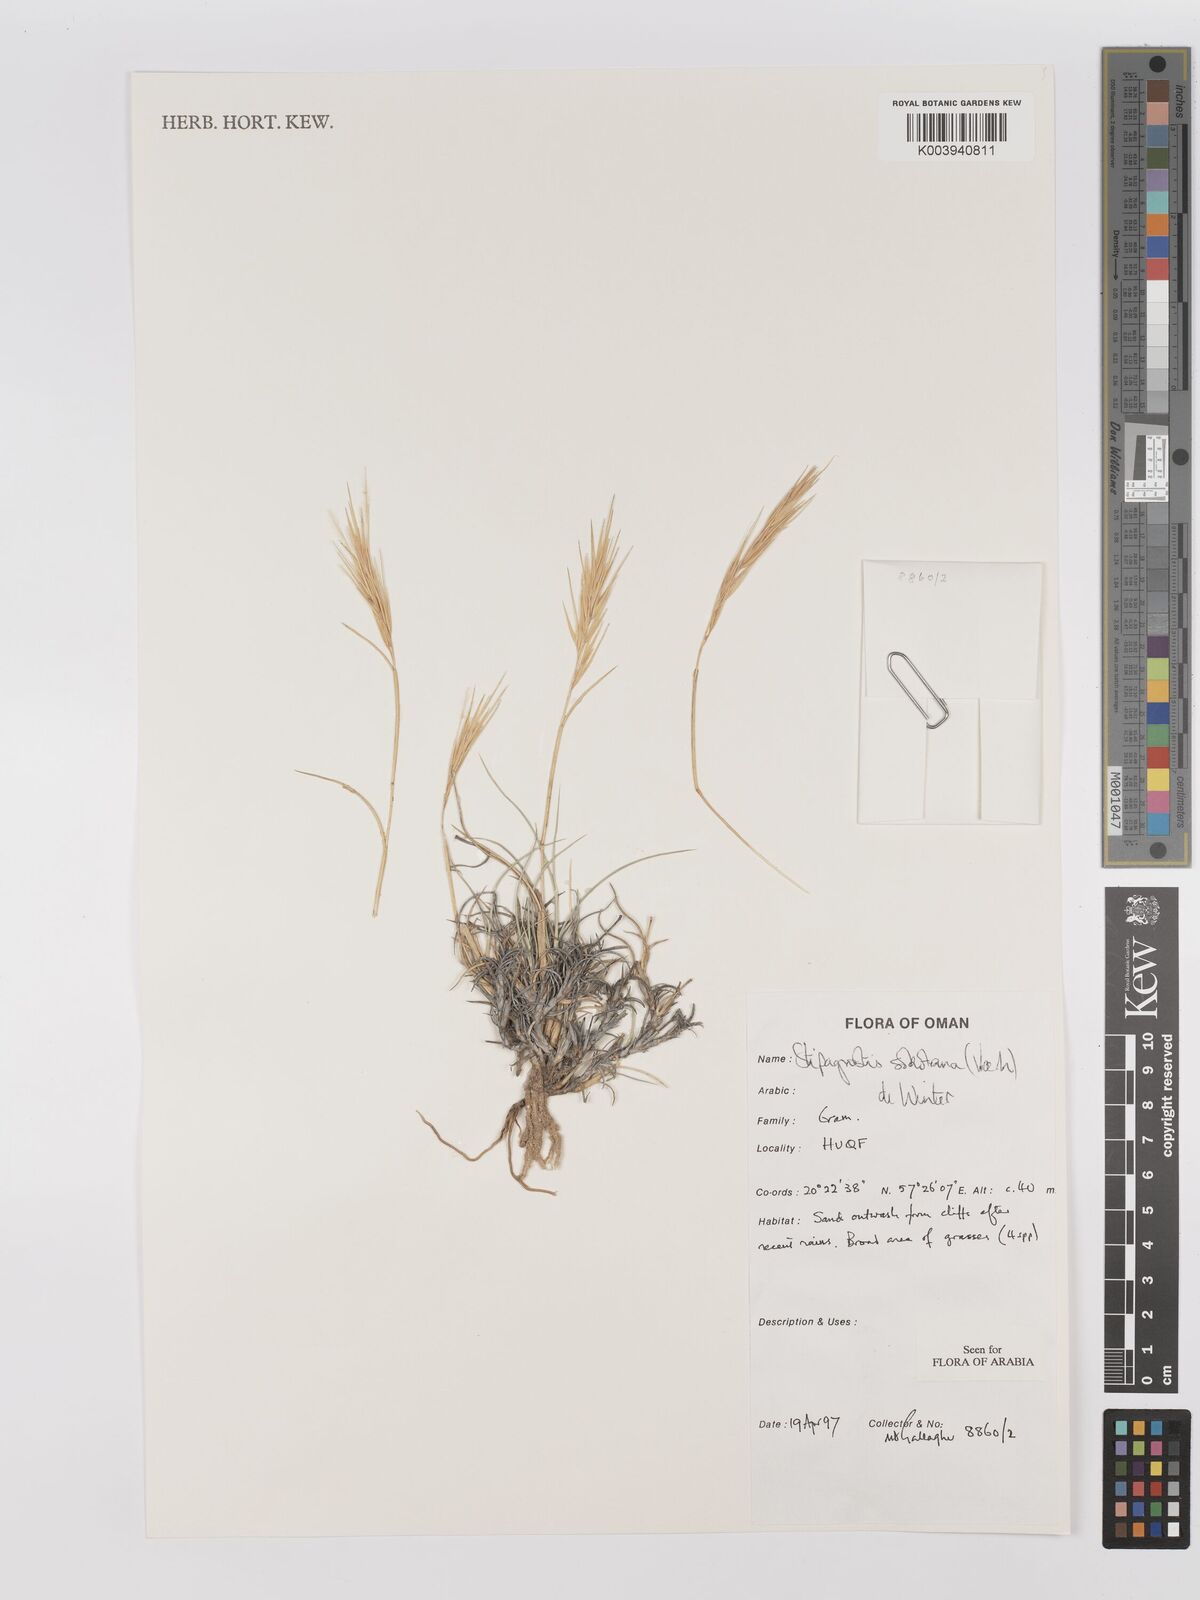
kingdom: Plantae
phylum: Tracheophyta
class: Liliopsida
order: Poales
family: Poaceae
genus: Stipagrostis
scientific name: Stipagrostis sokotrana
